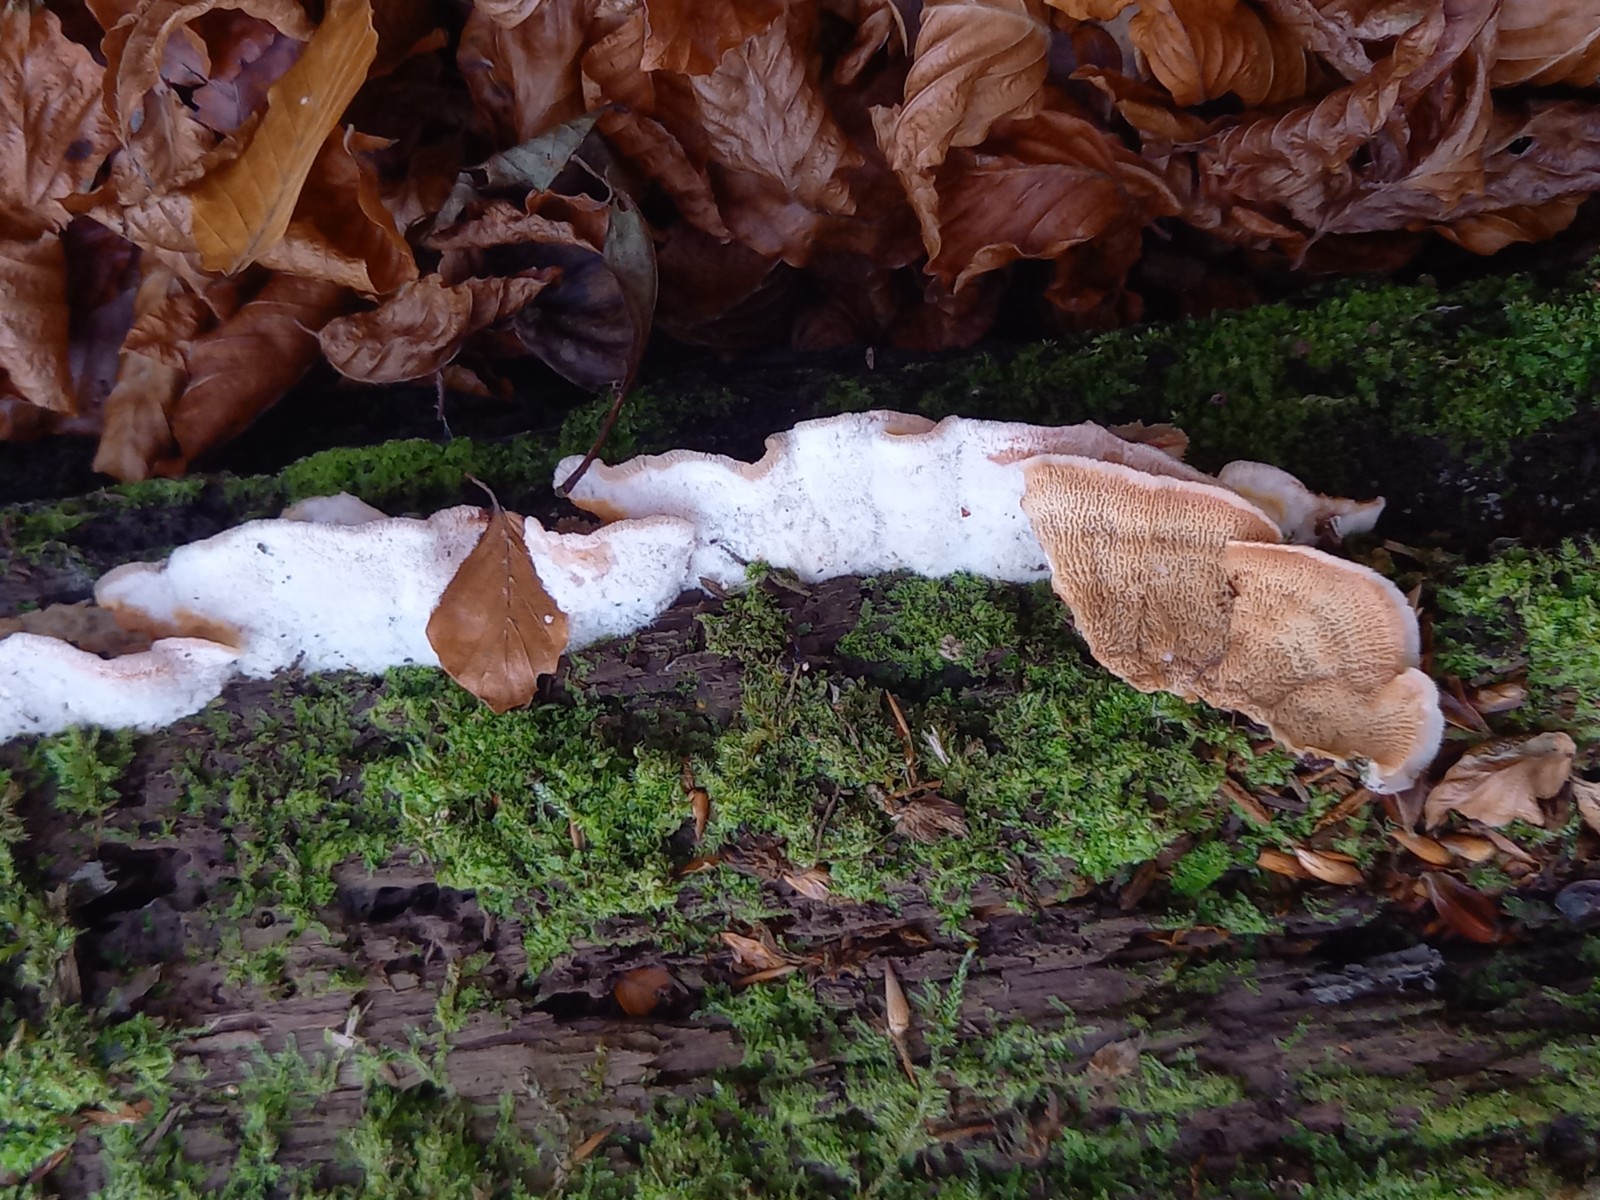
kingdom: Fungi
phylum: Basidiomycota
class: Agaricomycetes
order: Polyporales
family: Meruliaceae
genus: Phlebia
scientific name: Phlebia tremellosa
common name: bævrende åresvamp
